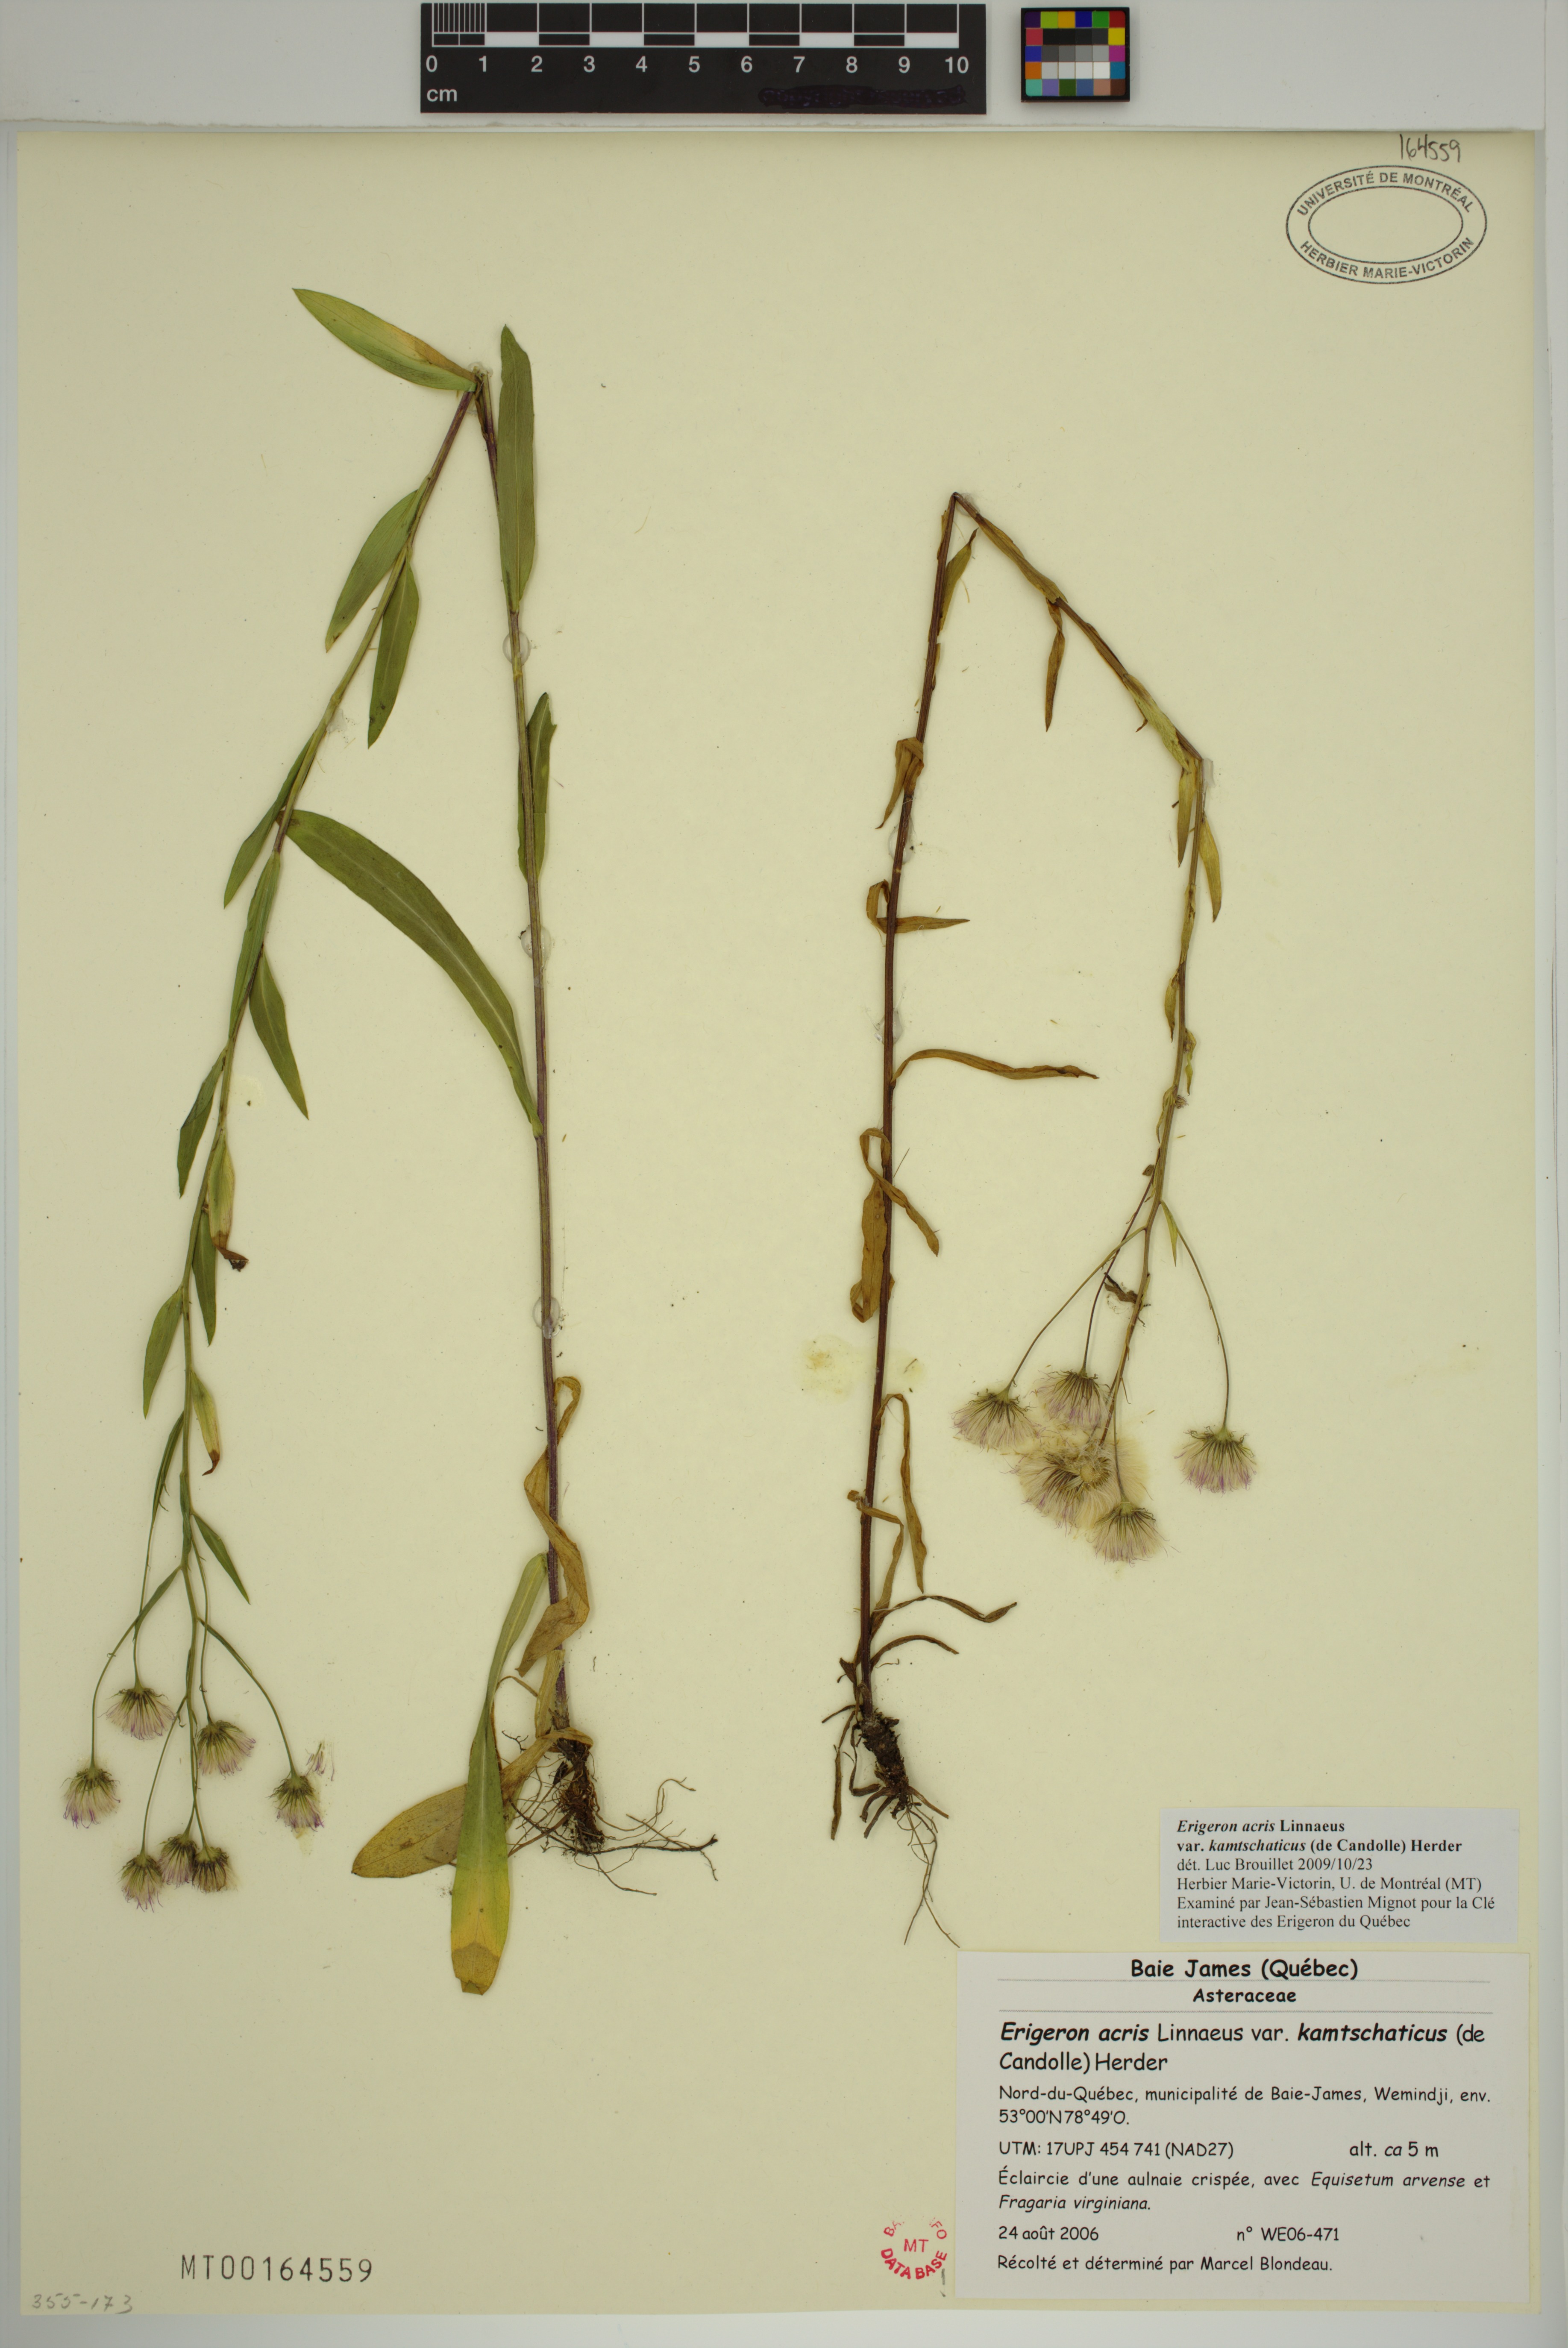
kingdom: Plantae
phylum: Tracheophyta
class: Magnoliopsida
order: Asterales
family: Asteraceae
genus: Erigeron
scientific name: Erigeron kamtschaticus
